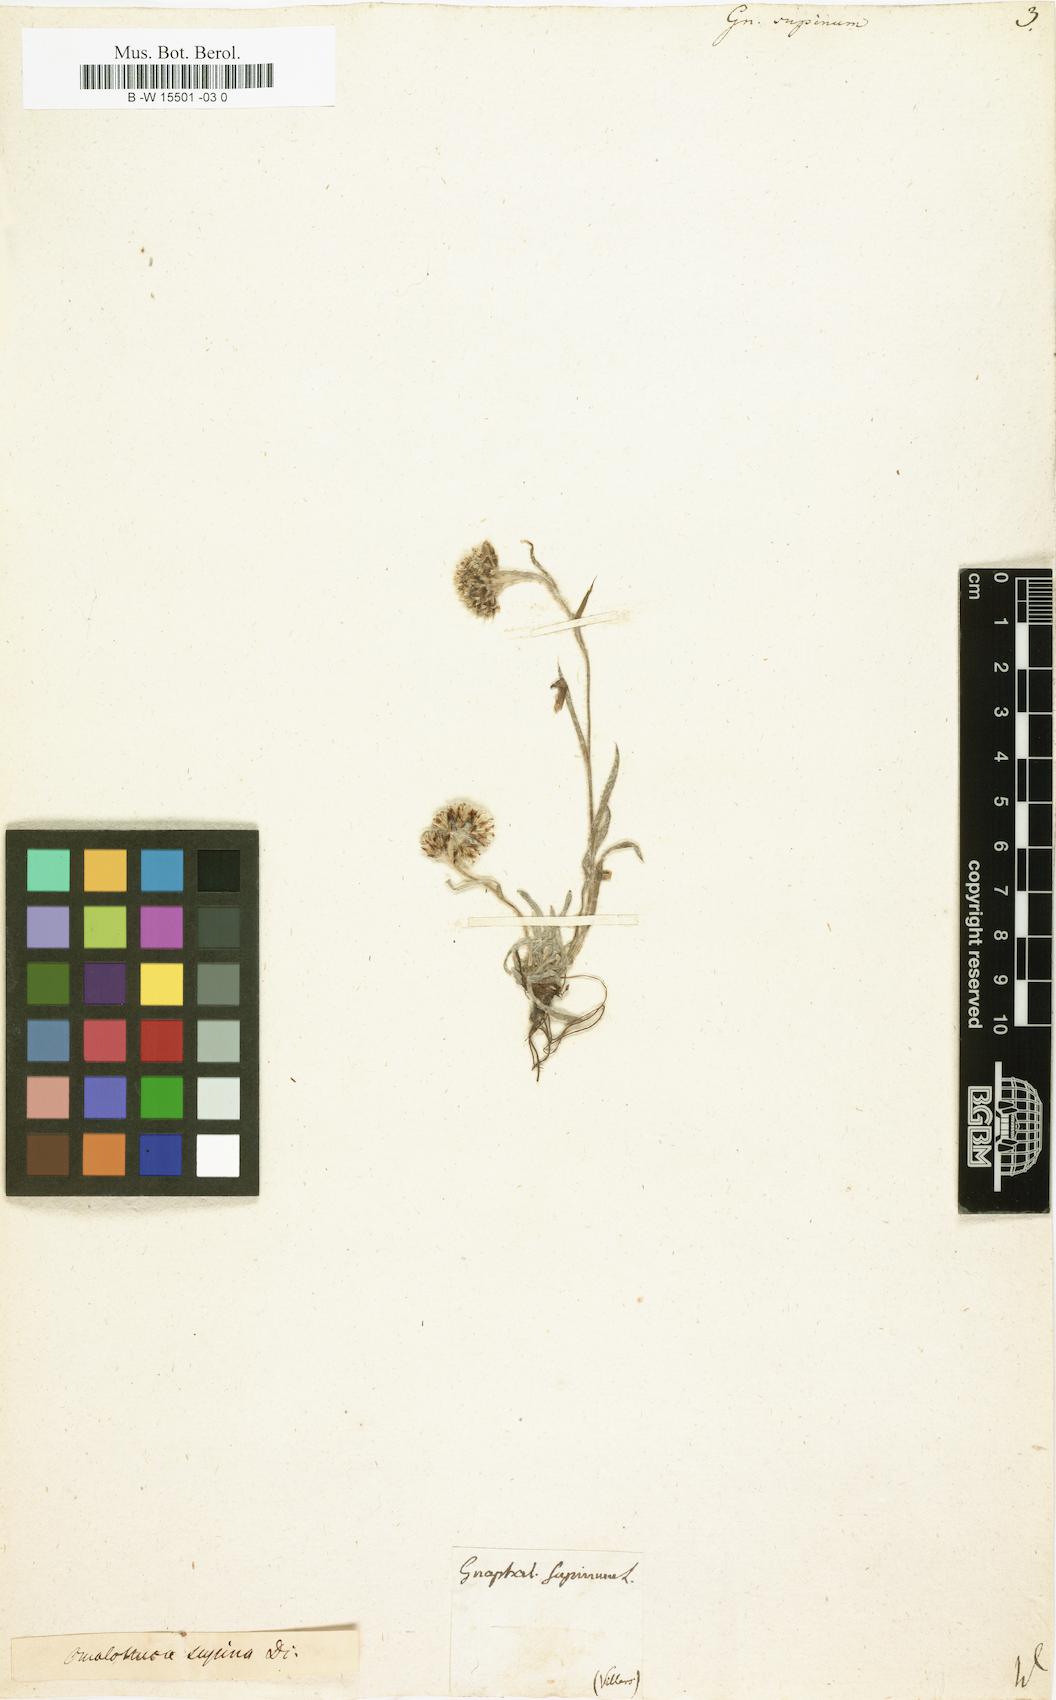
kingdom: Plantae
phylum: Tracheophyta
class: Magnoliopsida
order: Asterales
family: Asteraceae
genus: Omalotheca
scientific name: Omalotheca supina
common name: Alpine arctic-cudweed
